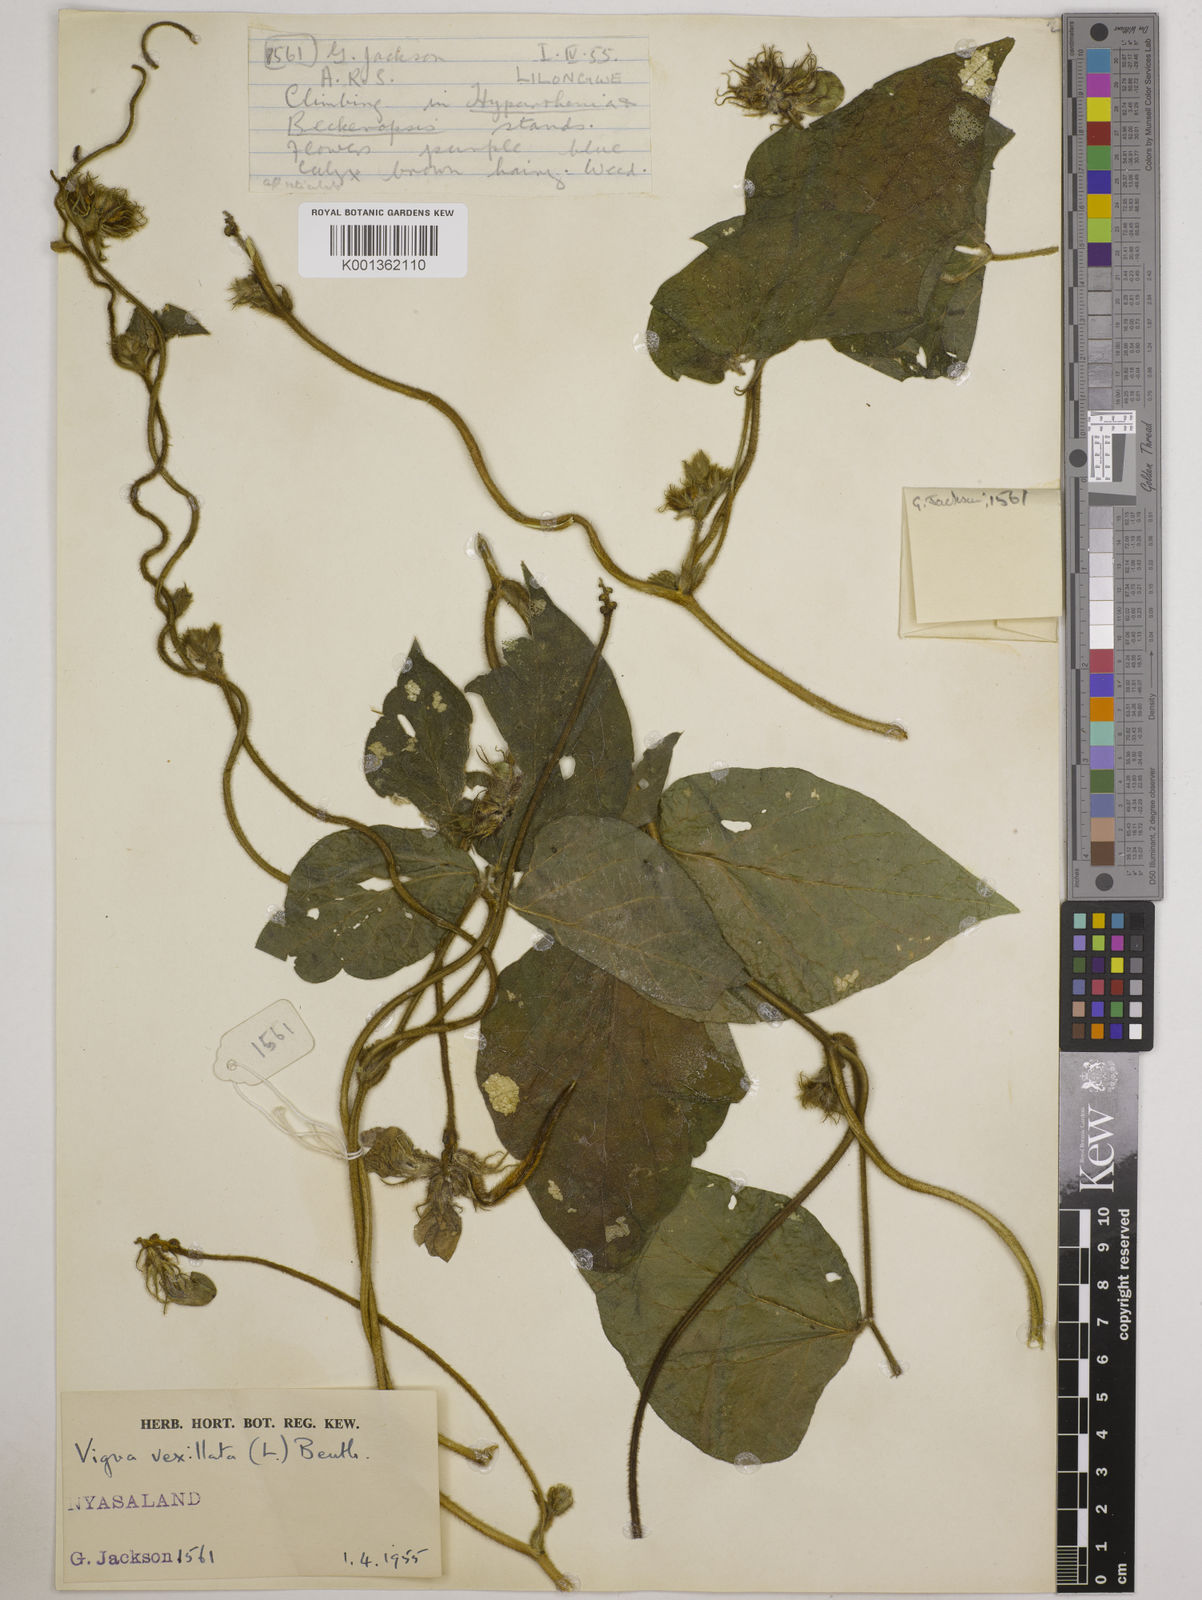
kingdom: Plantae
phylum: Tracheophyta
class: Magnoliopsida
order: Fabales
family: Fabaceae
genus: Vigna
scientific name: Vigna vexillata
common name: Zombi pea
